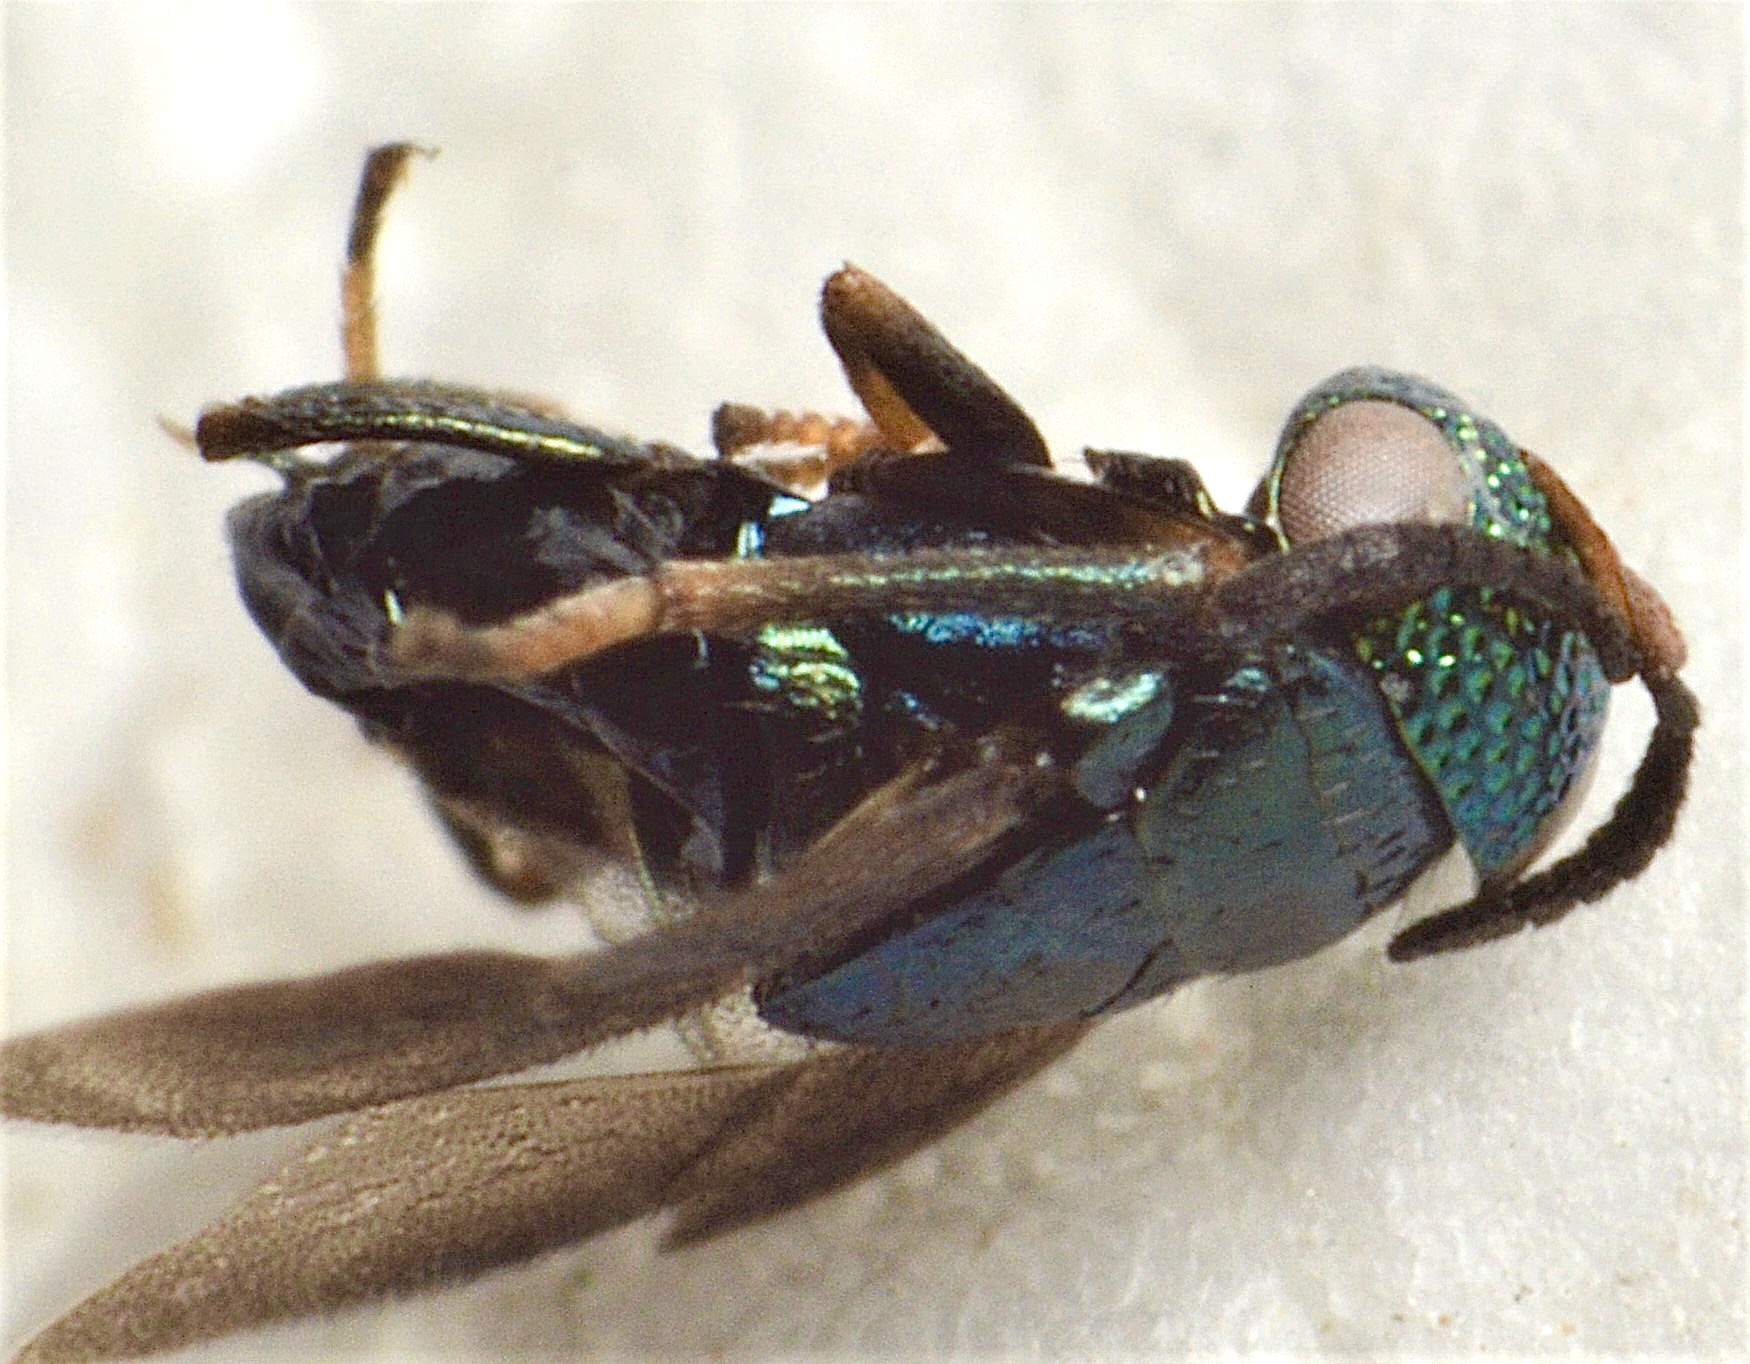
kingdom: Animalia
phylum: Arthropoda
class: Insecta
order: Hymenoptera
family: Encyrtidae
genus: Eugahania
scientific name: Eugahania fumipennis
